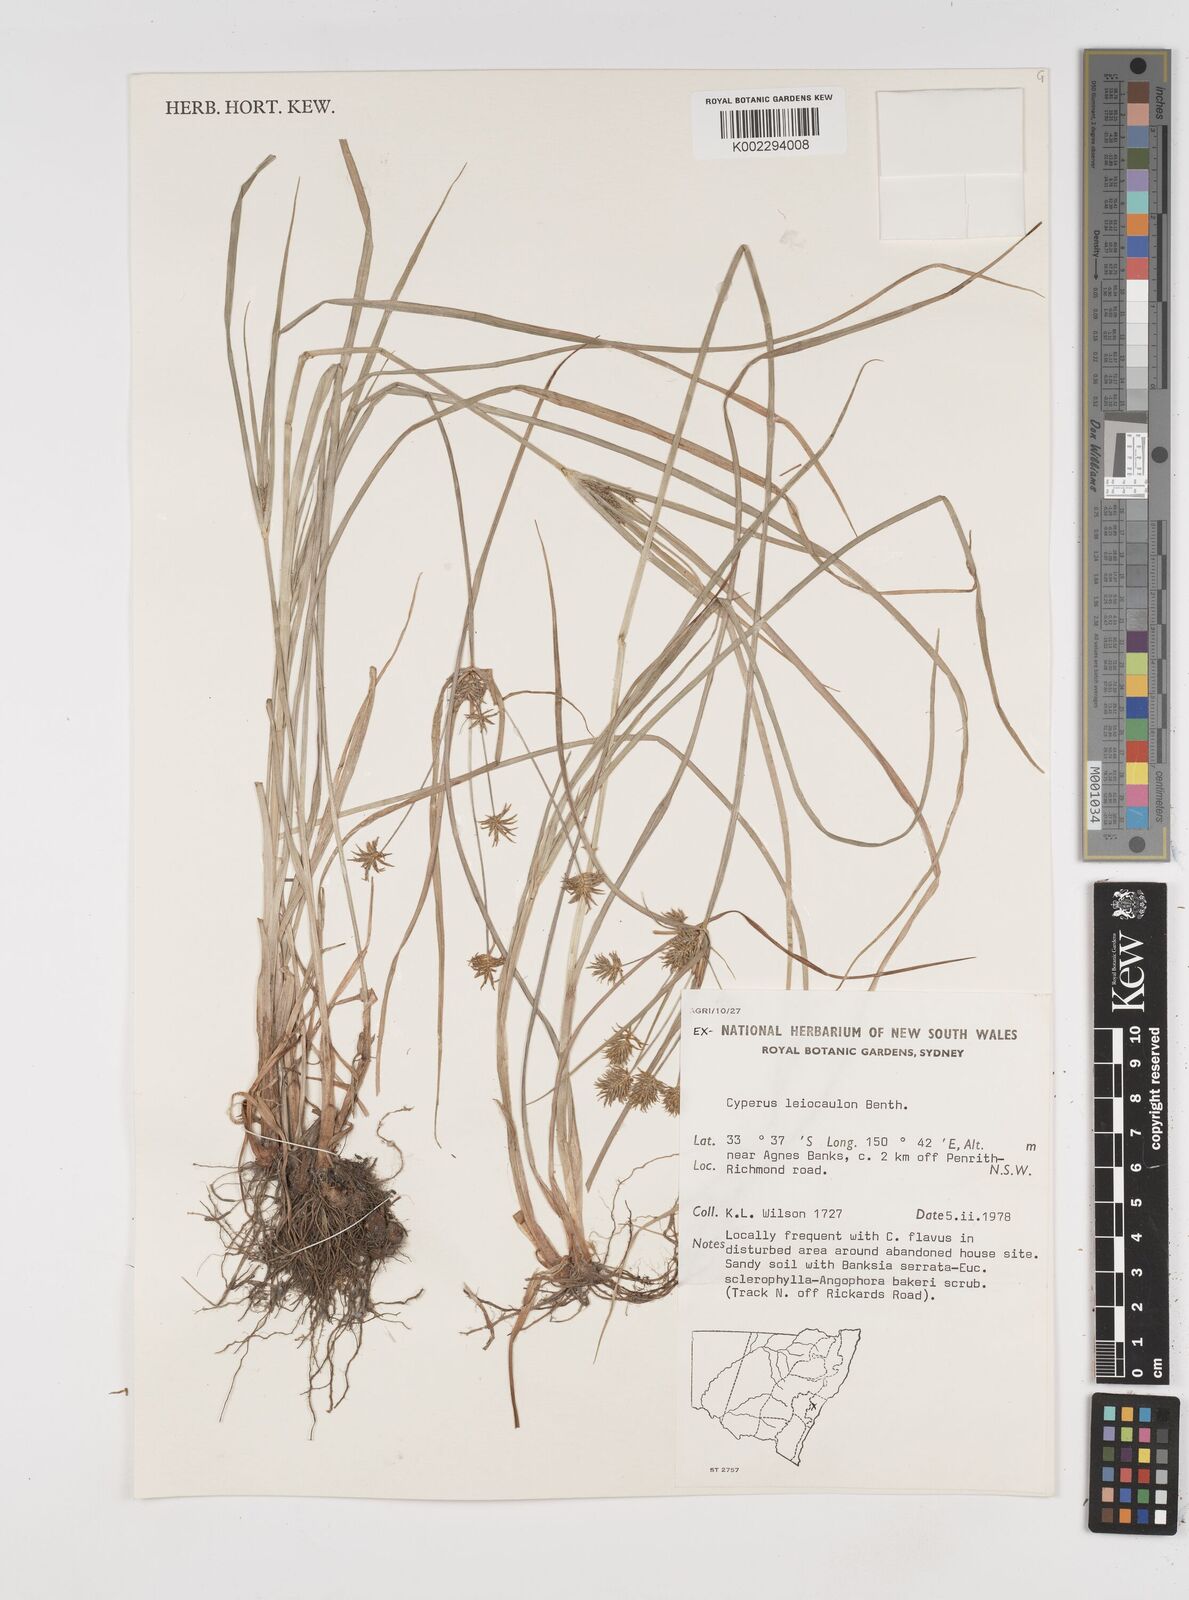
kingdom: Plantae
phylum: Tracheophyta
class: Liliopsida
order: Poales
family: Cyperaceae
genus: Cyperus
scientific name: Cyperus leiocaulon
